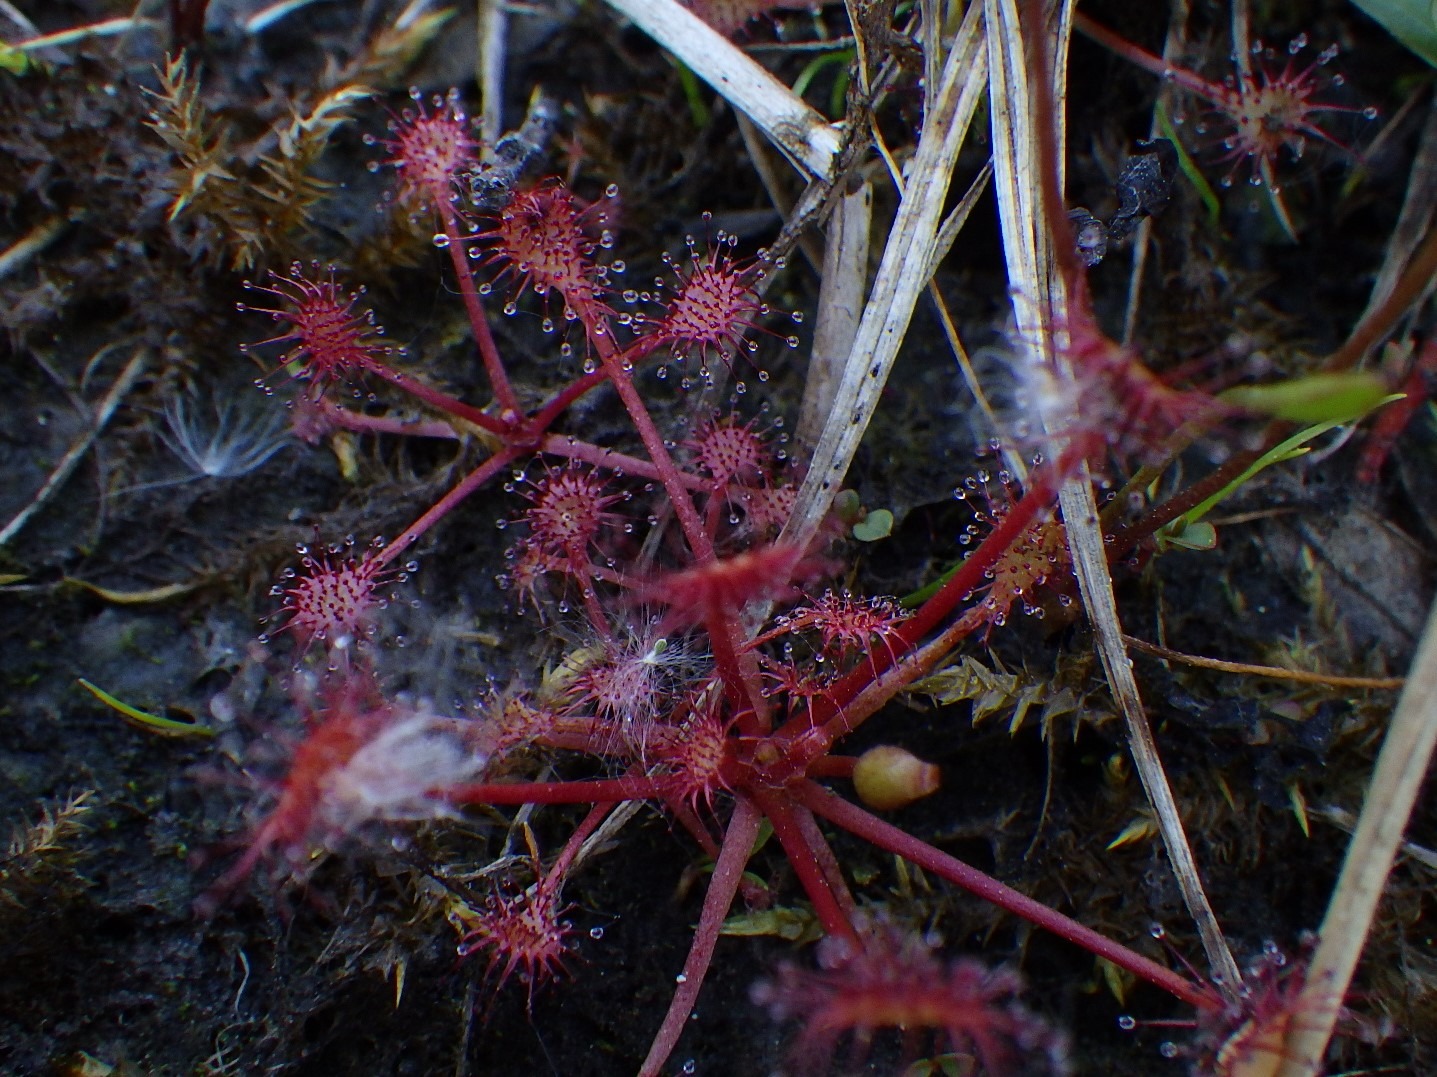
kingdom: Plantae
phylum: Tracheophyta
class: Magnoliopsida
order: Caryophyllales
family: Droseraceae
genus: Drosera
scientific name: Drosera intermedia
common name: Liden soldug
